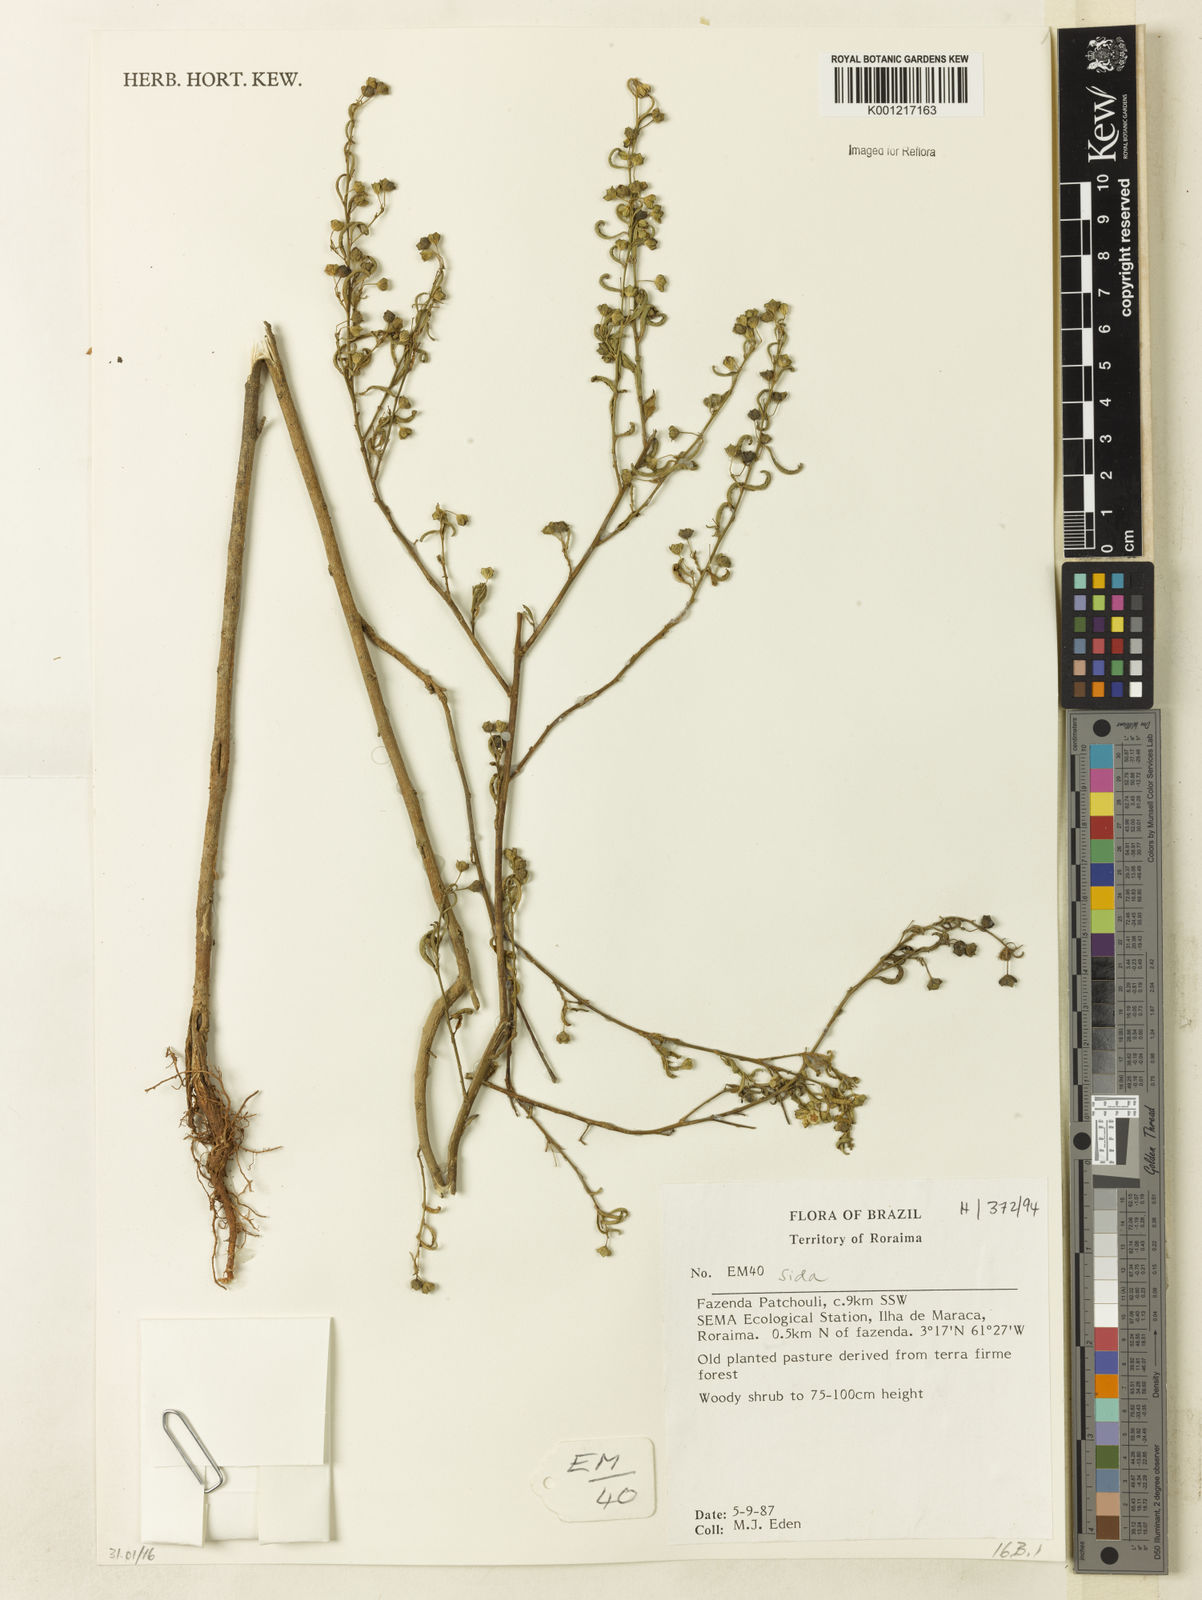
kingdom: Plantae
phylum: Tracheophyta
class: Magnoliopsida
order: Malvales
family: Malvaceae
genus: Sida
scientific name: Sida
